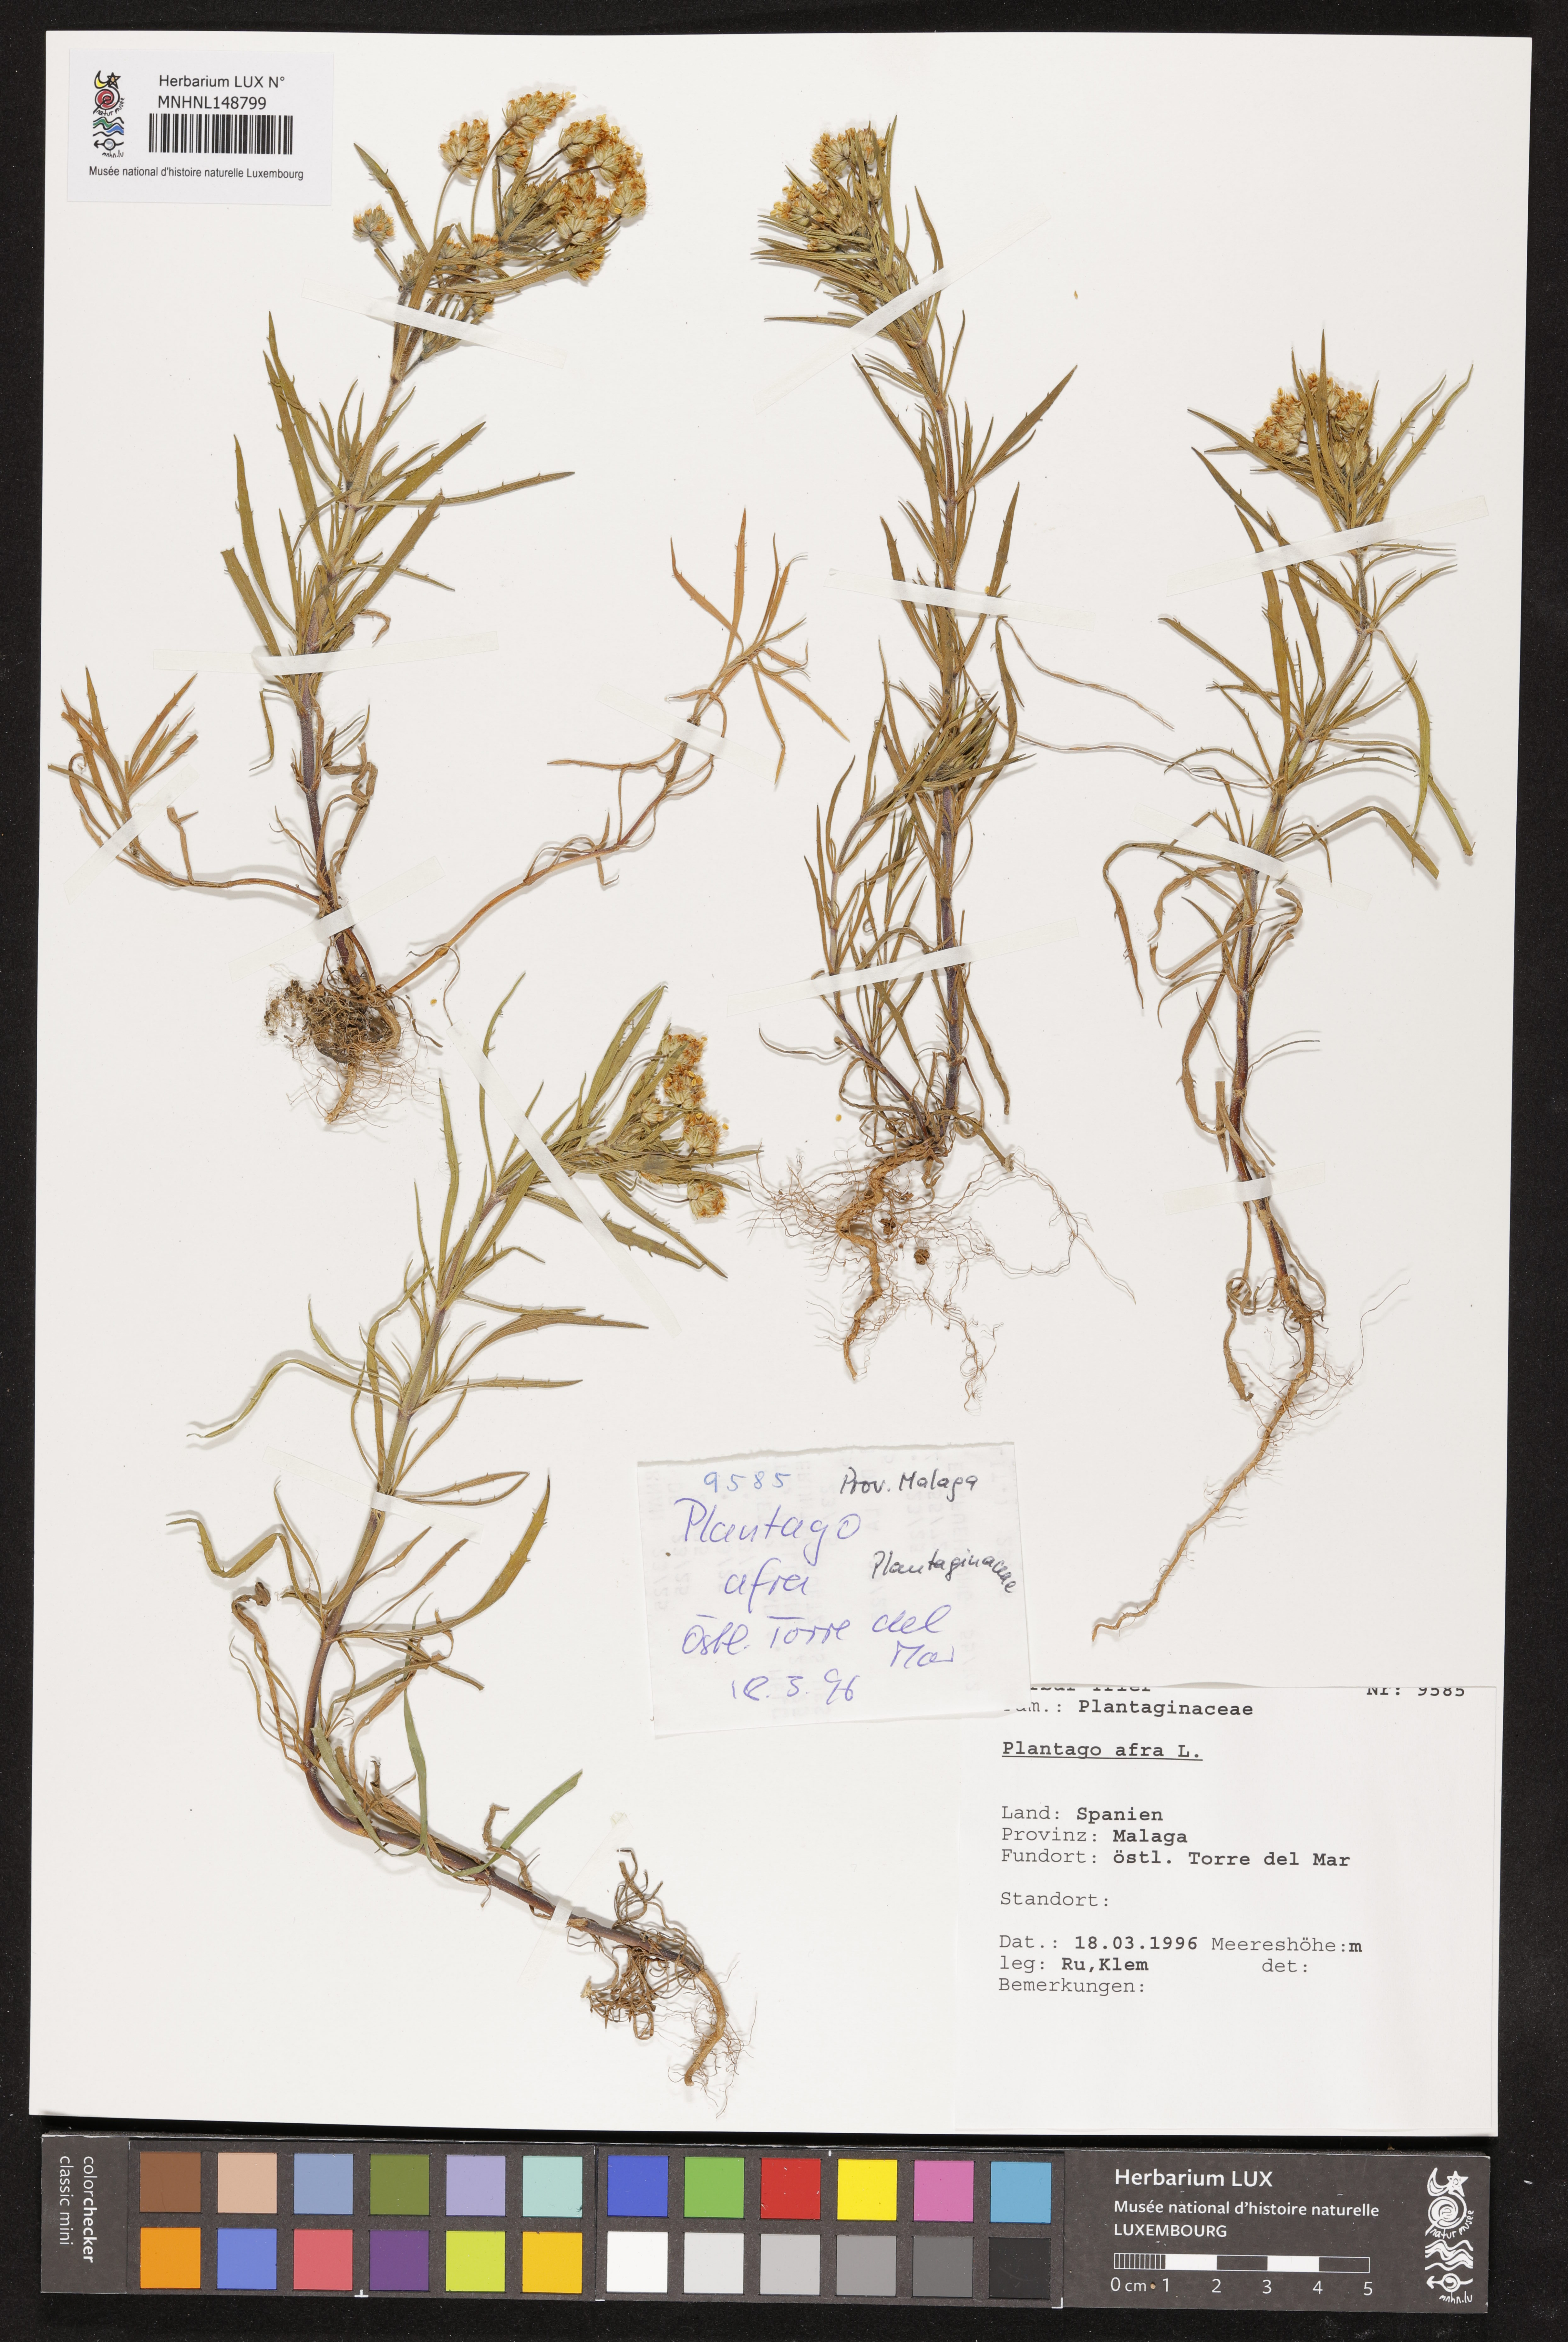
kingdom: Plantae
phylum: Tracheophyta
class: Magnoliopsida
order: Lamiales
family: Plantaginaceae
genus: Plantago
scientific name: Plantago afra
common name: Glandular plantain
